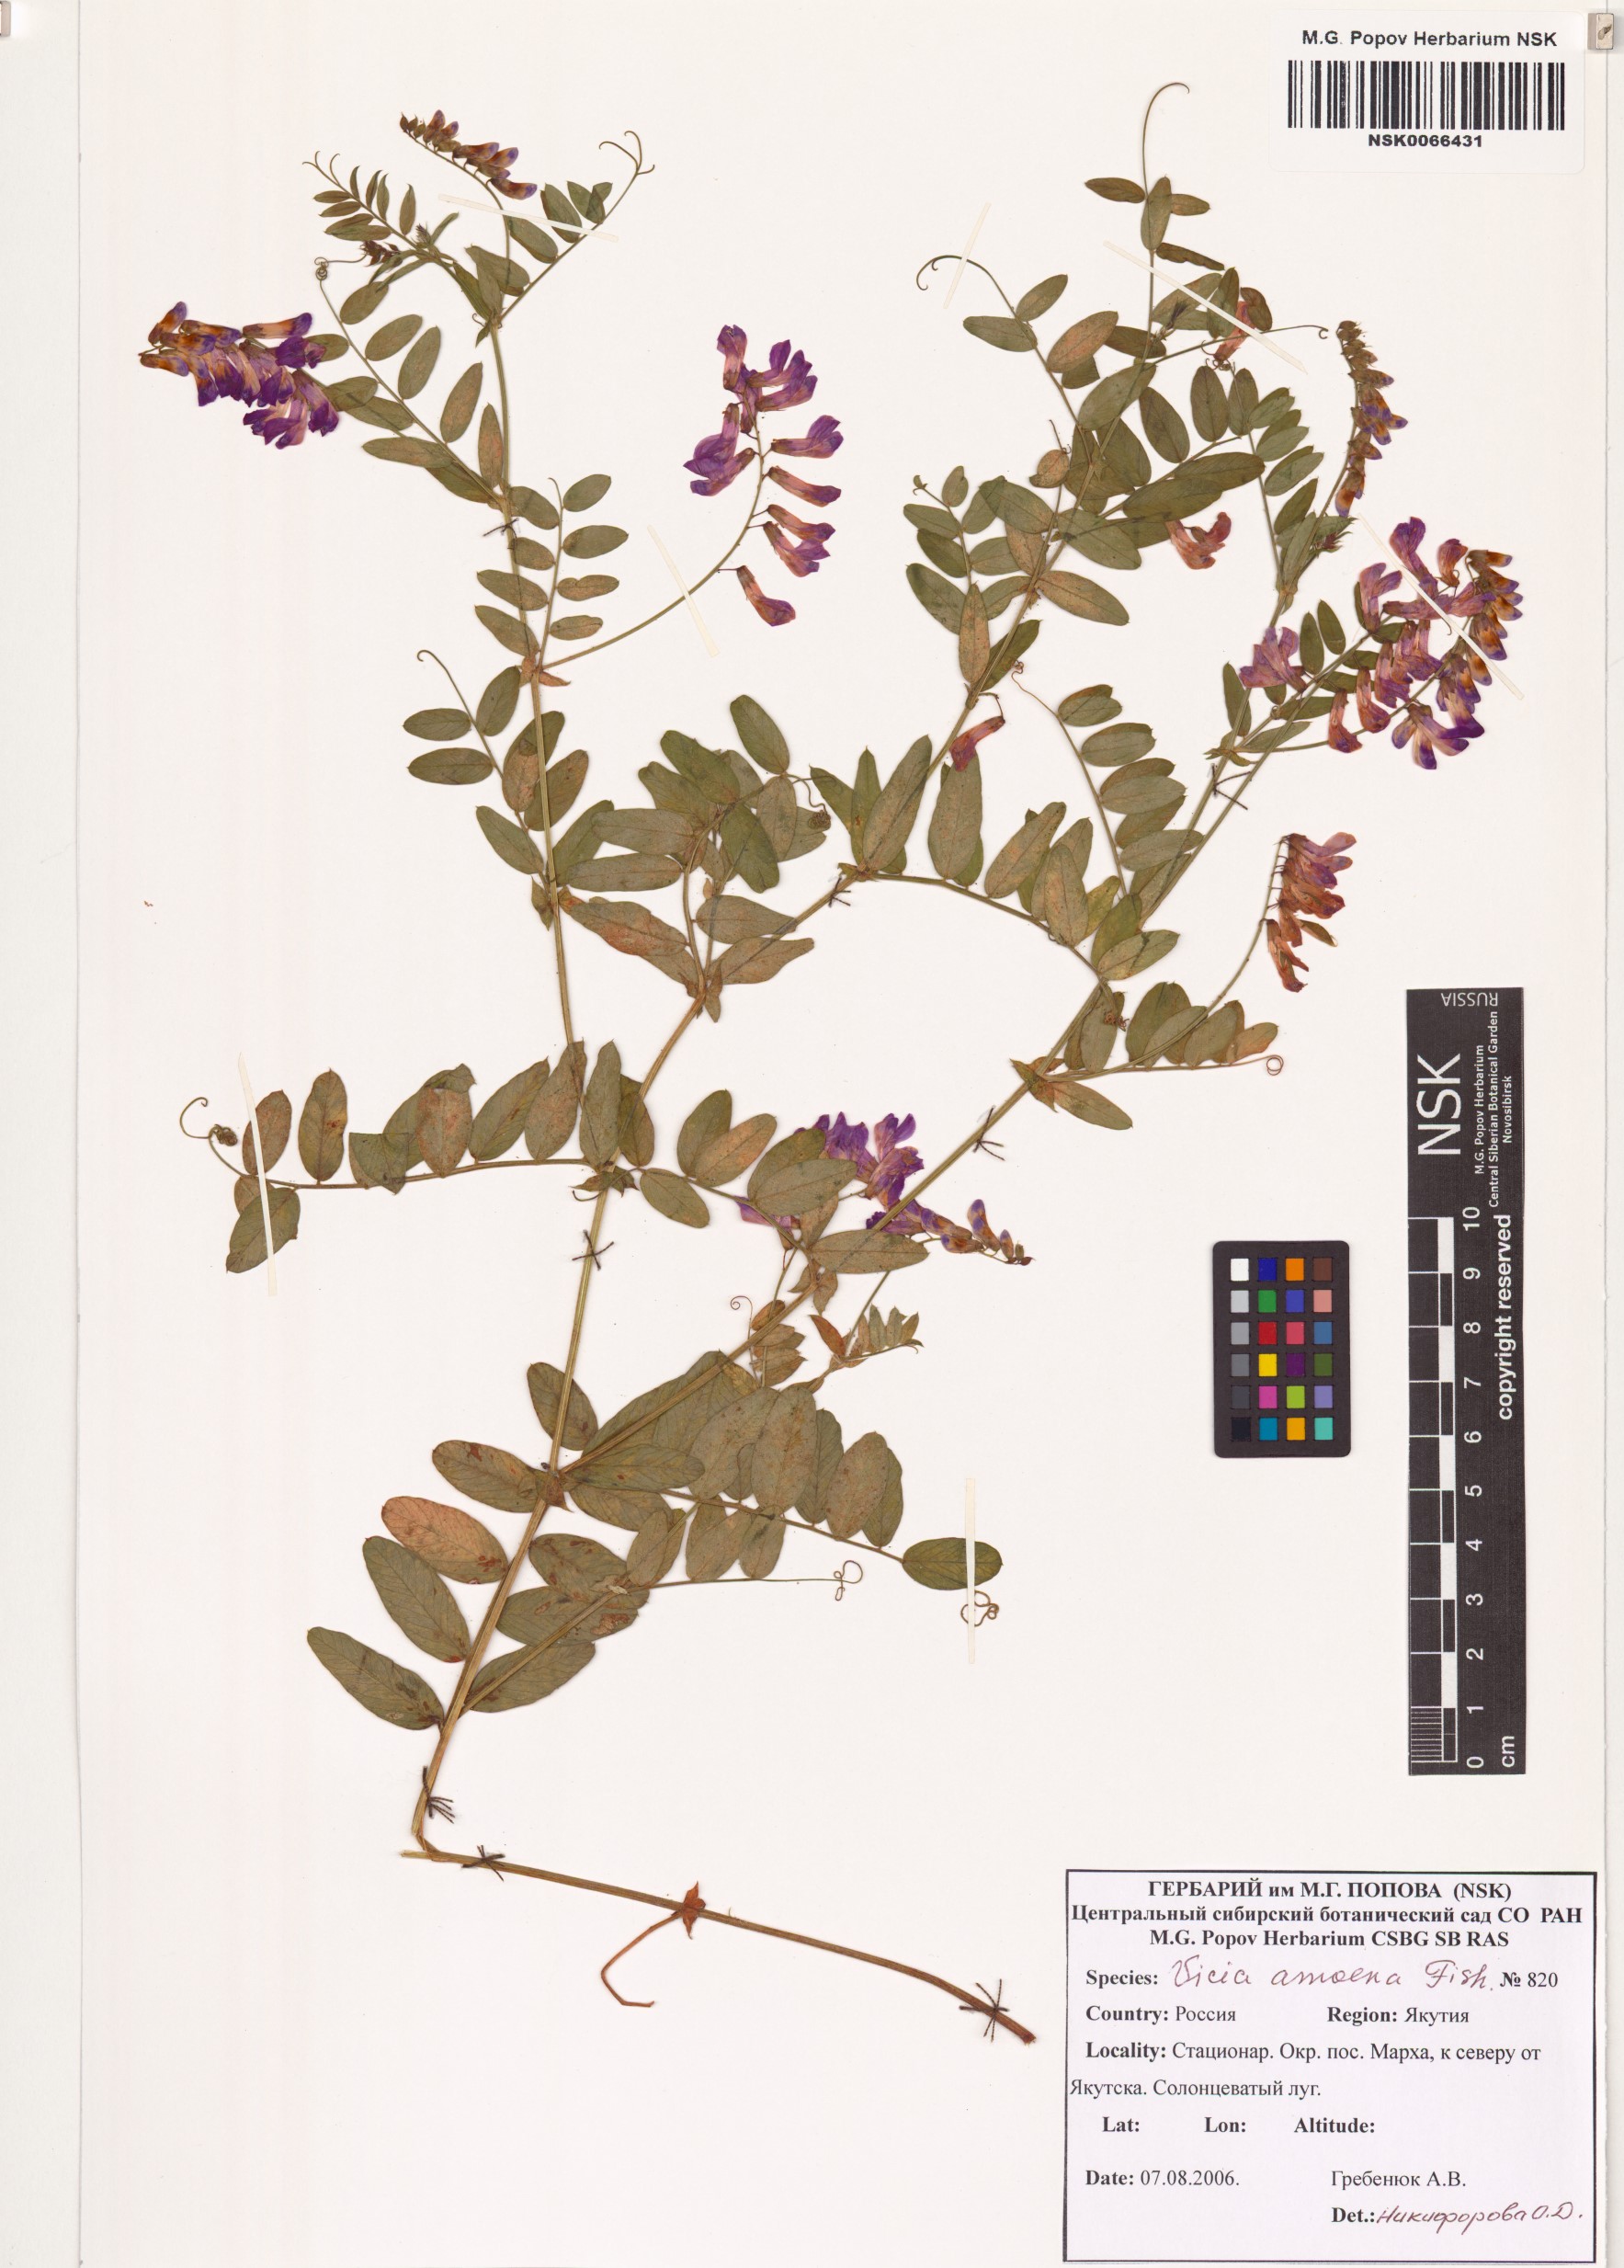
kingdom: Plantae
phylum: Tracheophyta
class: Magnoliopsida
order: Fabales
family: Fabaceae
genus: Vicia
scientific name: Vicia amoena
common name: Cheder ebs
